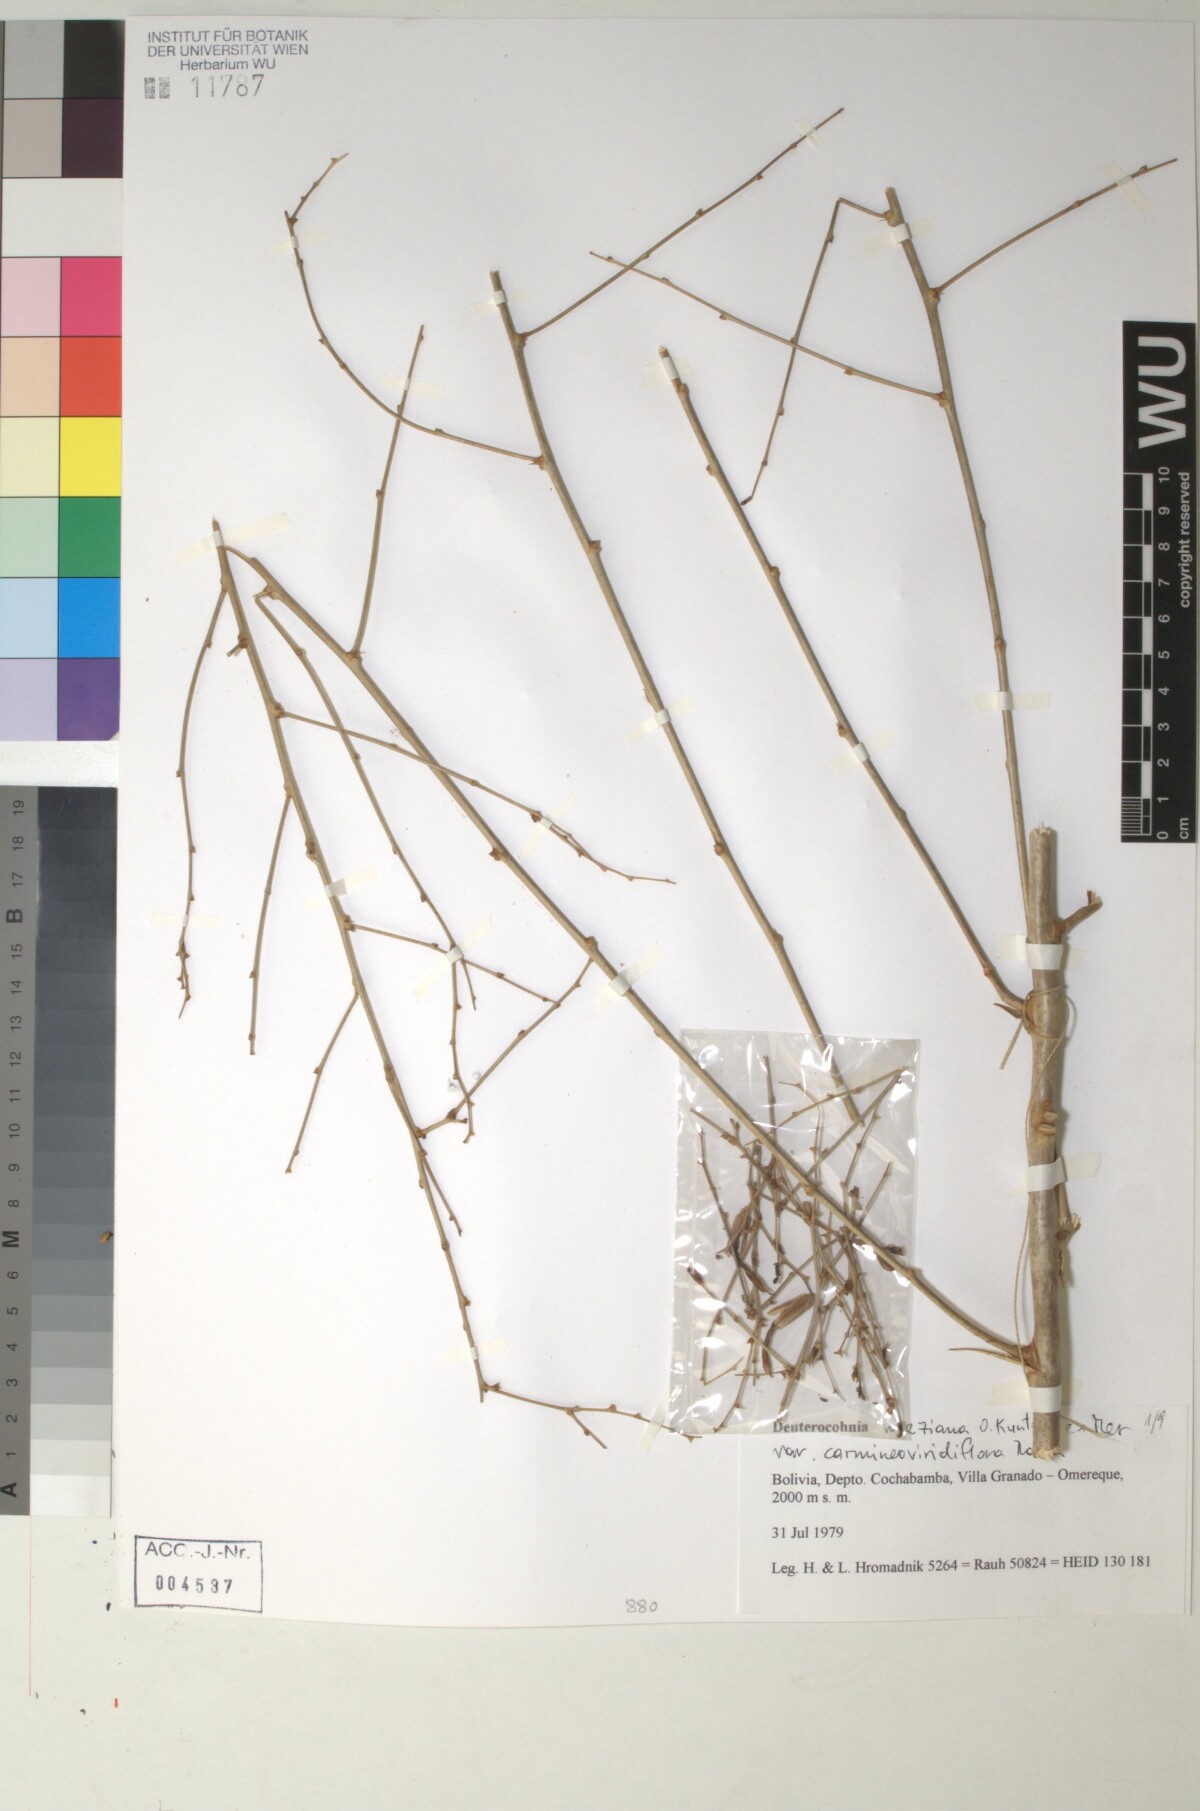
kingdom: Plantae
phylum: Tracheophyta
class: Liliopsida
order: Poales
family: Bromeliaceae
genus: Deuterocohnia
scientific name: Deuterocohnia meziana
